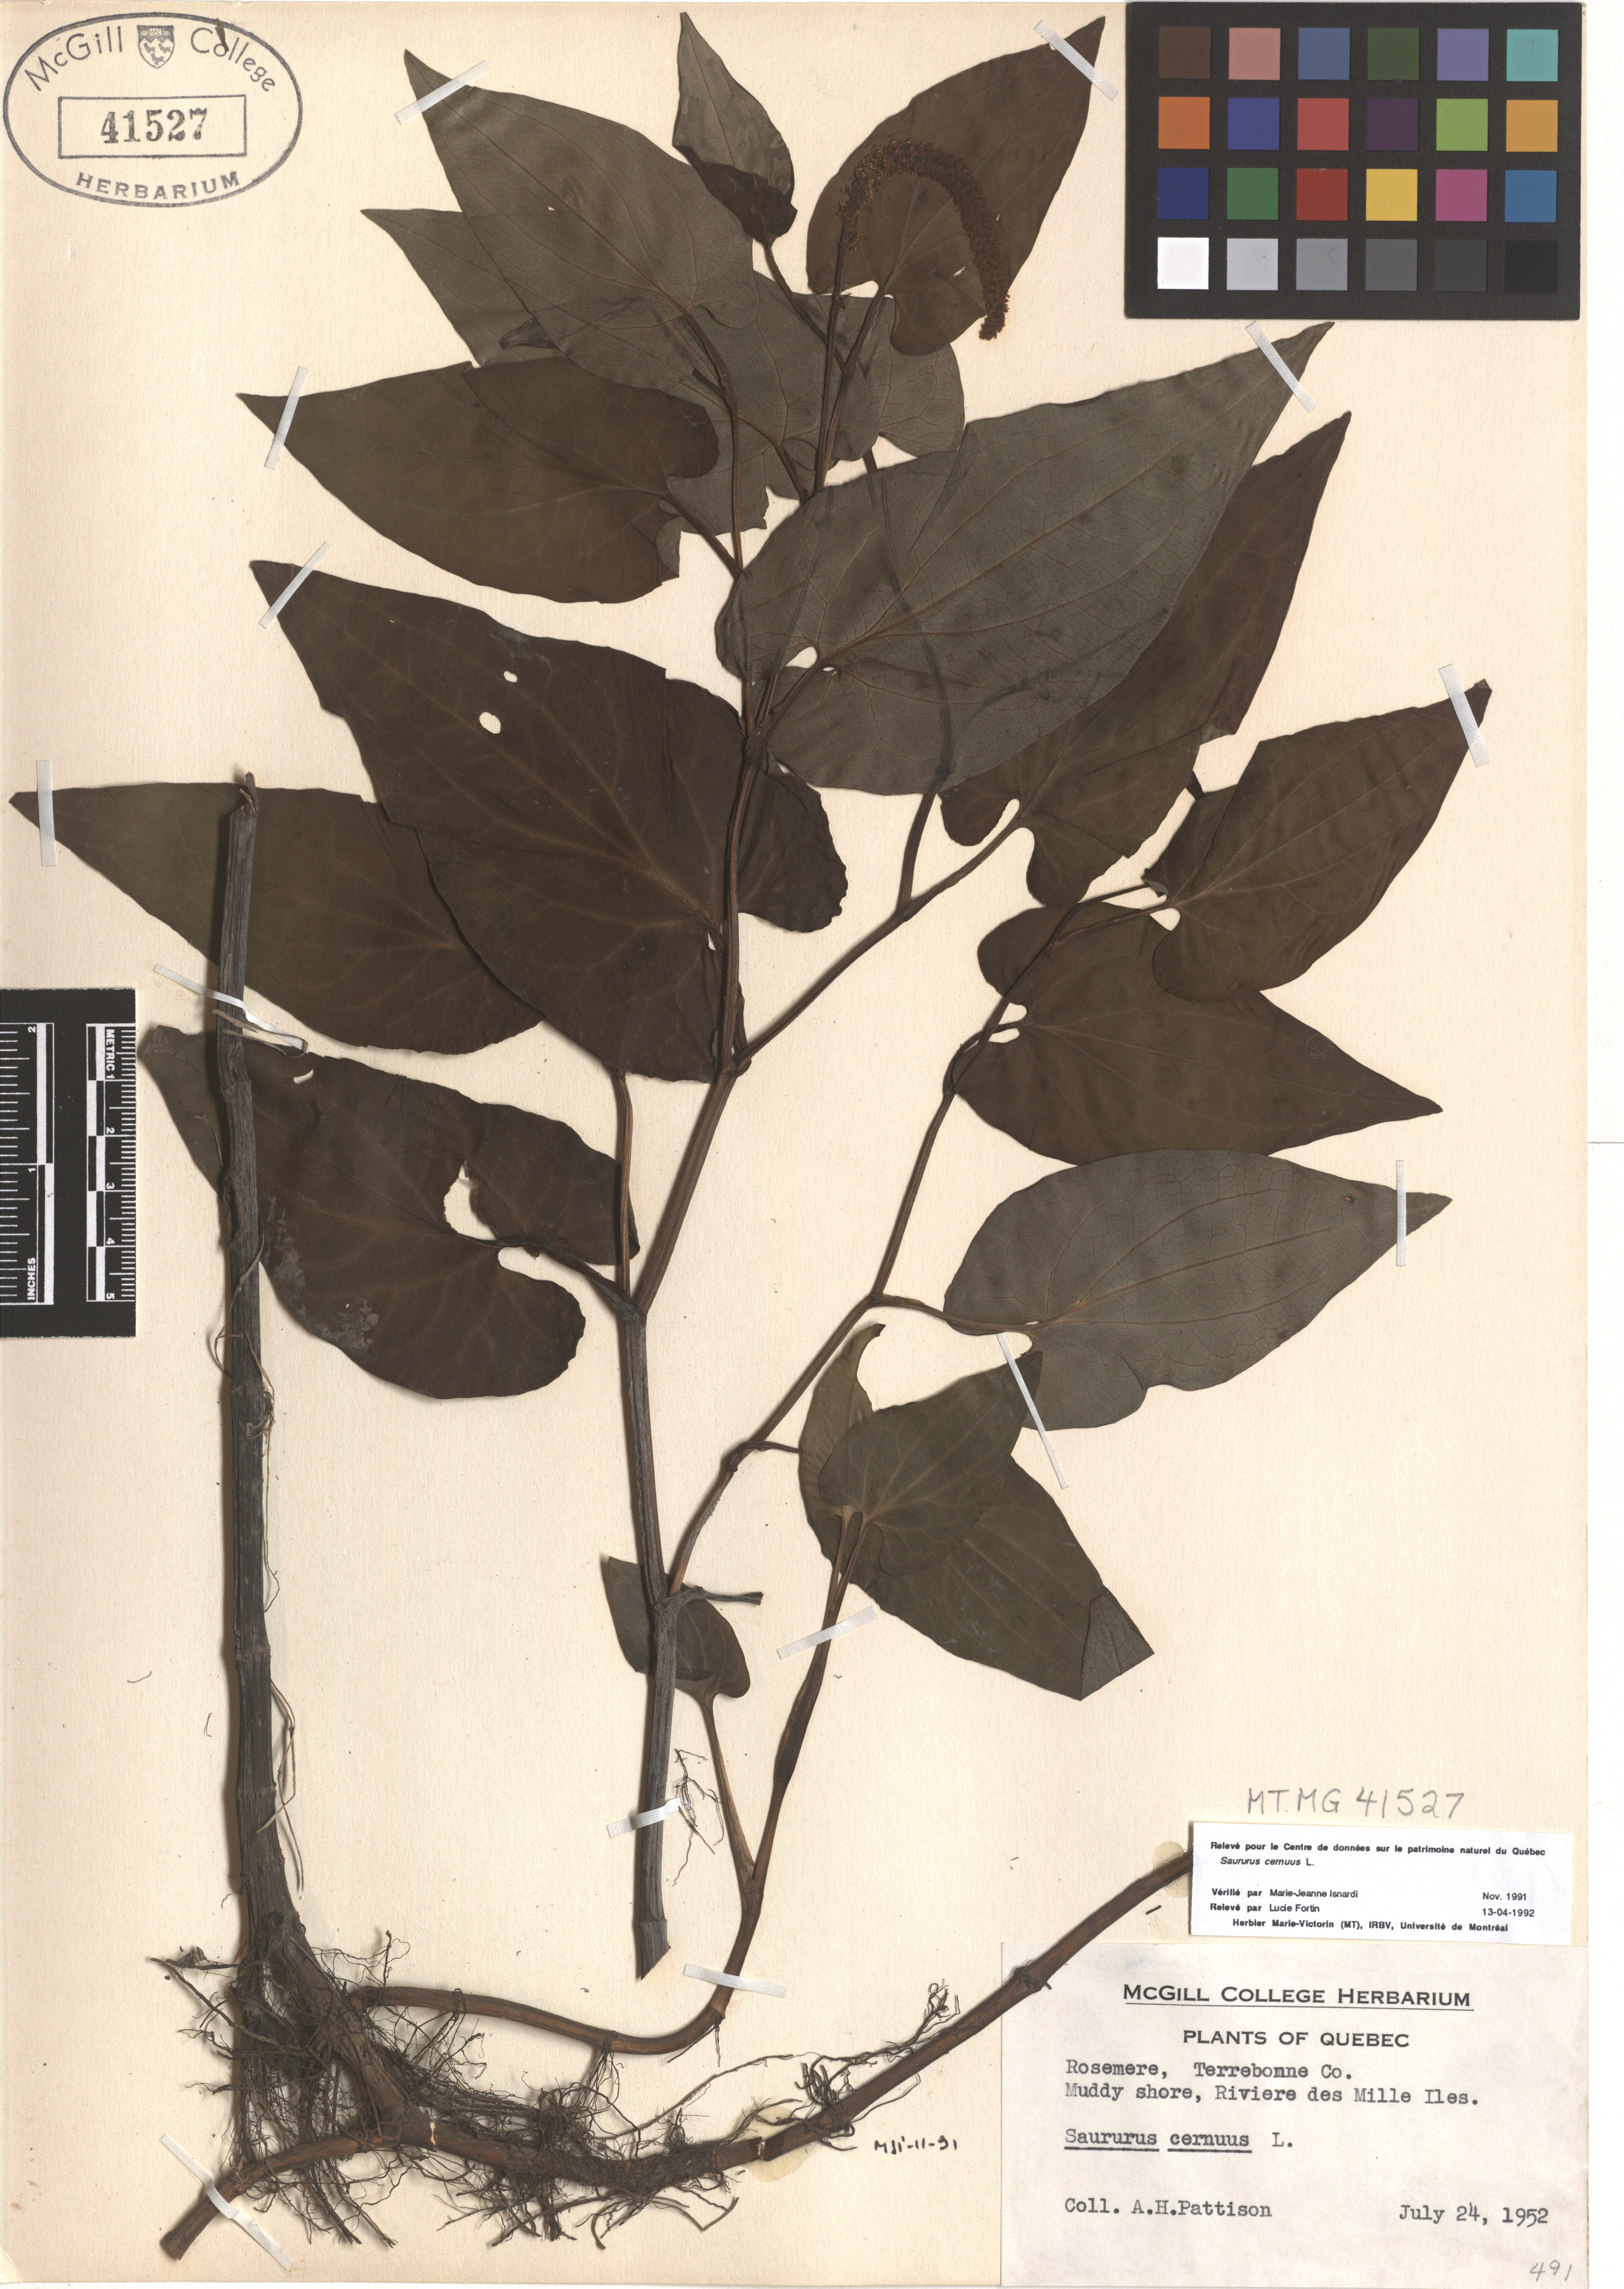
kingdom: Plantae
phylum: Tracheophyta
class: Magnoliopsida
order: Piperales
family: Saururaceae
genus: Saururus
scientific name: Saururus cernuus
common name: Lizard's-tail
